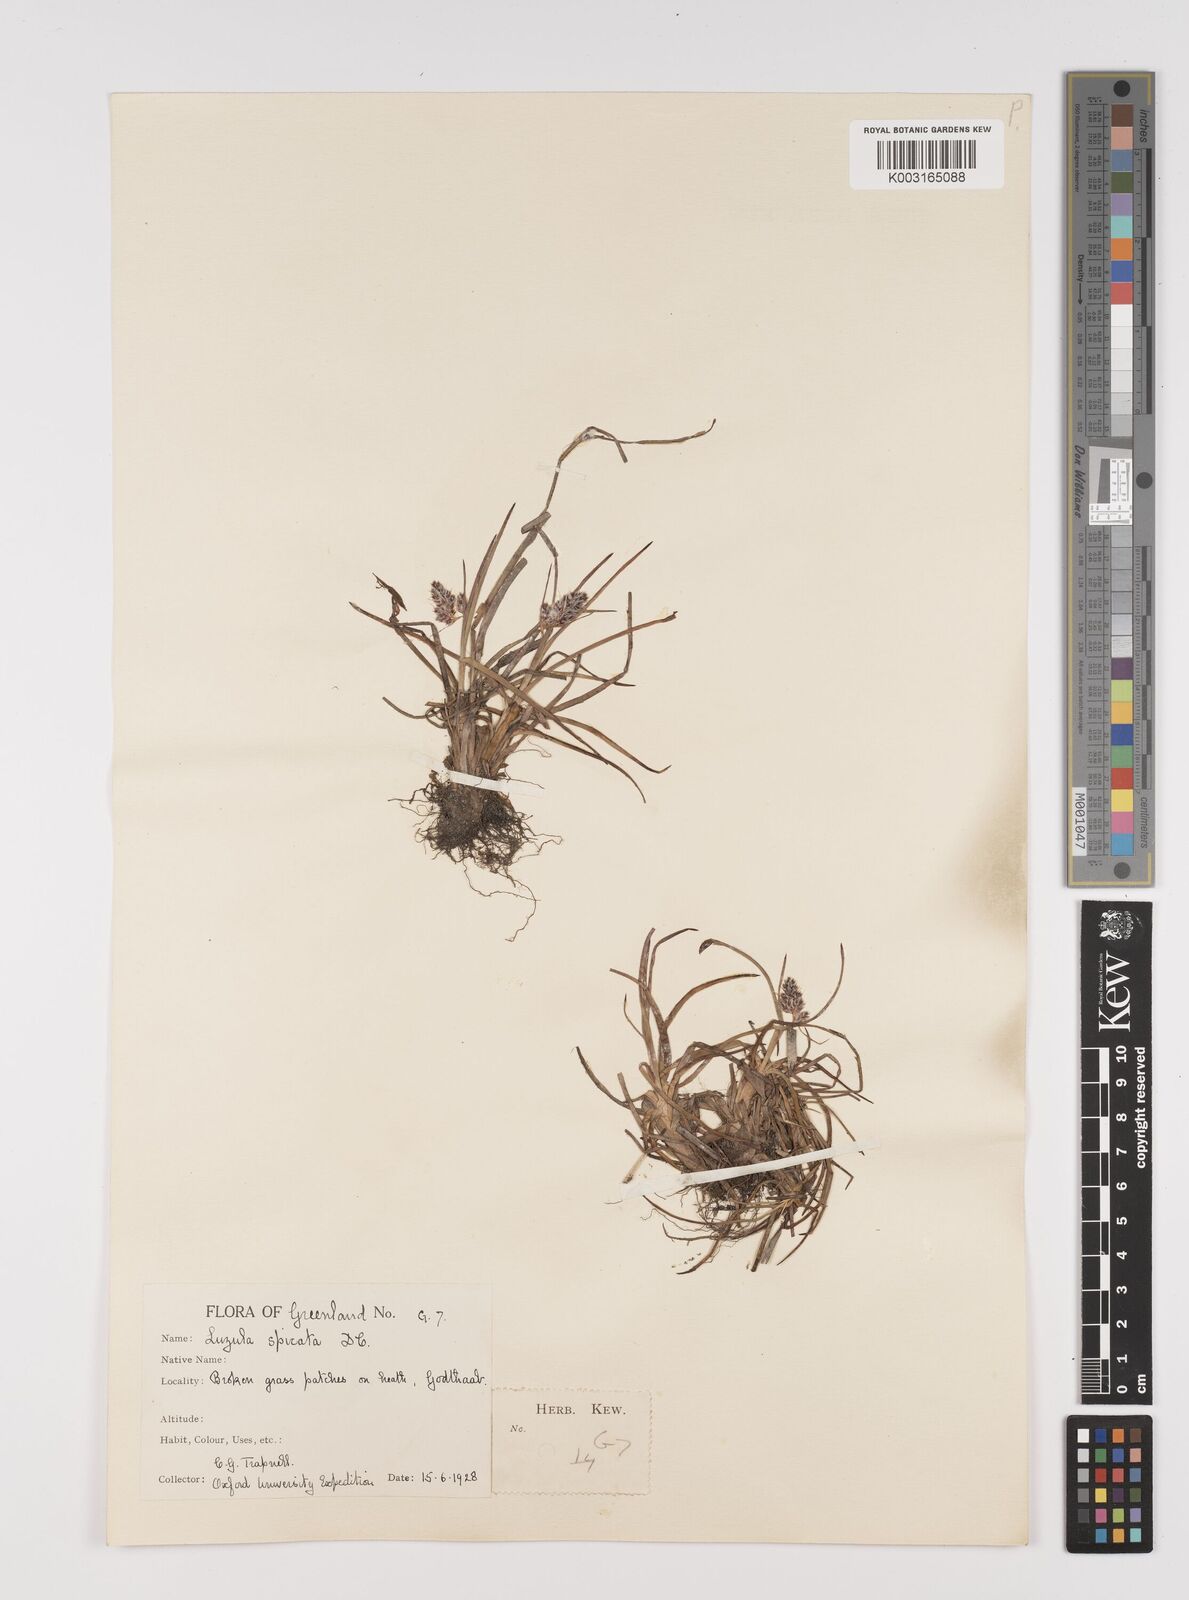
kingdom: Plantae
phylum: Tracheophyta
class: Liliopsida
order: Poales
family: Juncaceae
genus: Luzula
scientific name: Luzula spicata
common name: Spiked wood-rush
